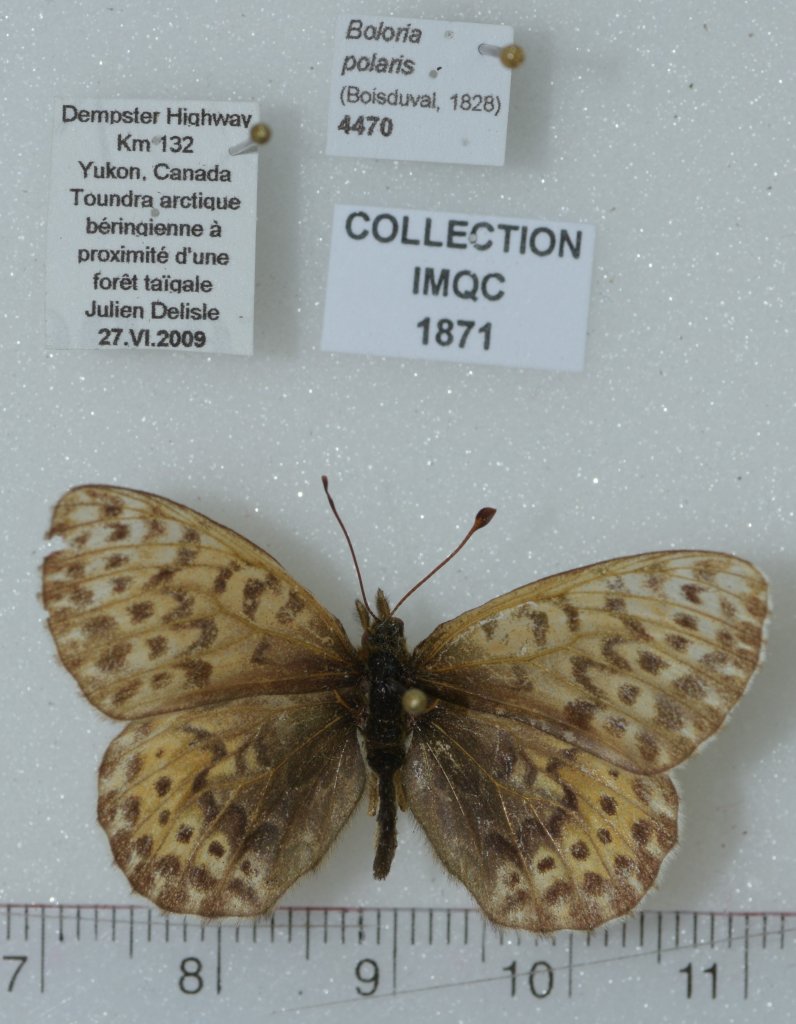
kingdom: Animalia
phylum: Arthropoda
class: Insecta
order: Lepidoptera
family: Nymphalidae
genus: Clossiana
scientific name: Clossiana polaris
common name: Polaris Fritillary
